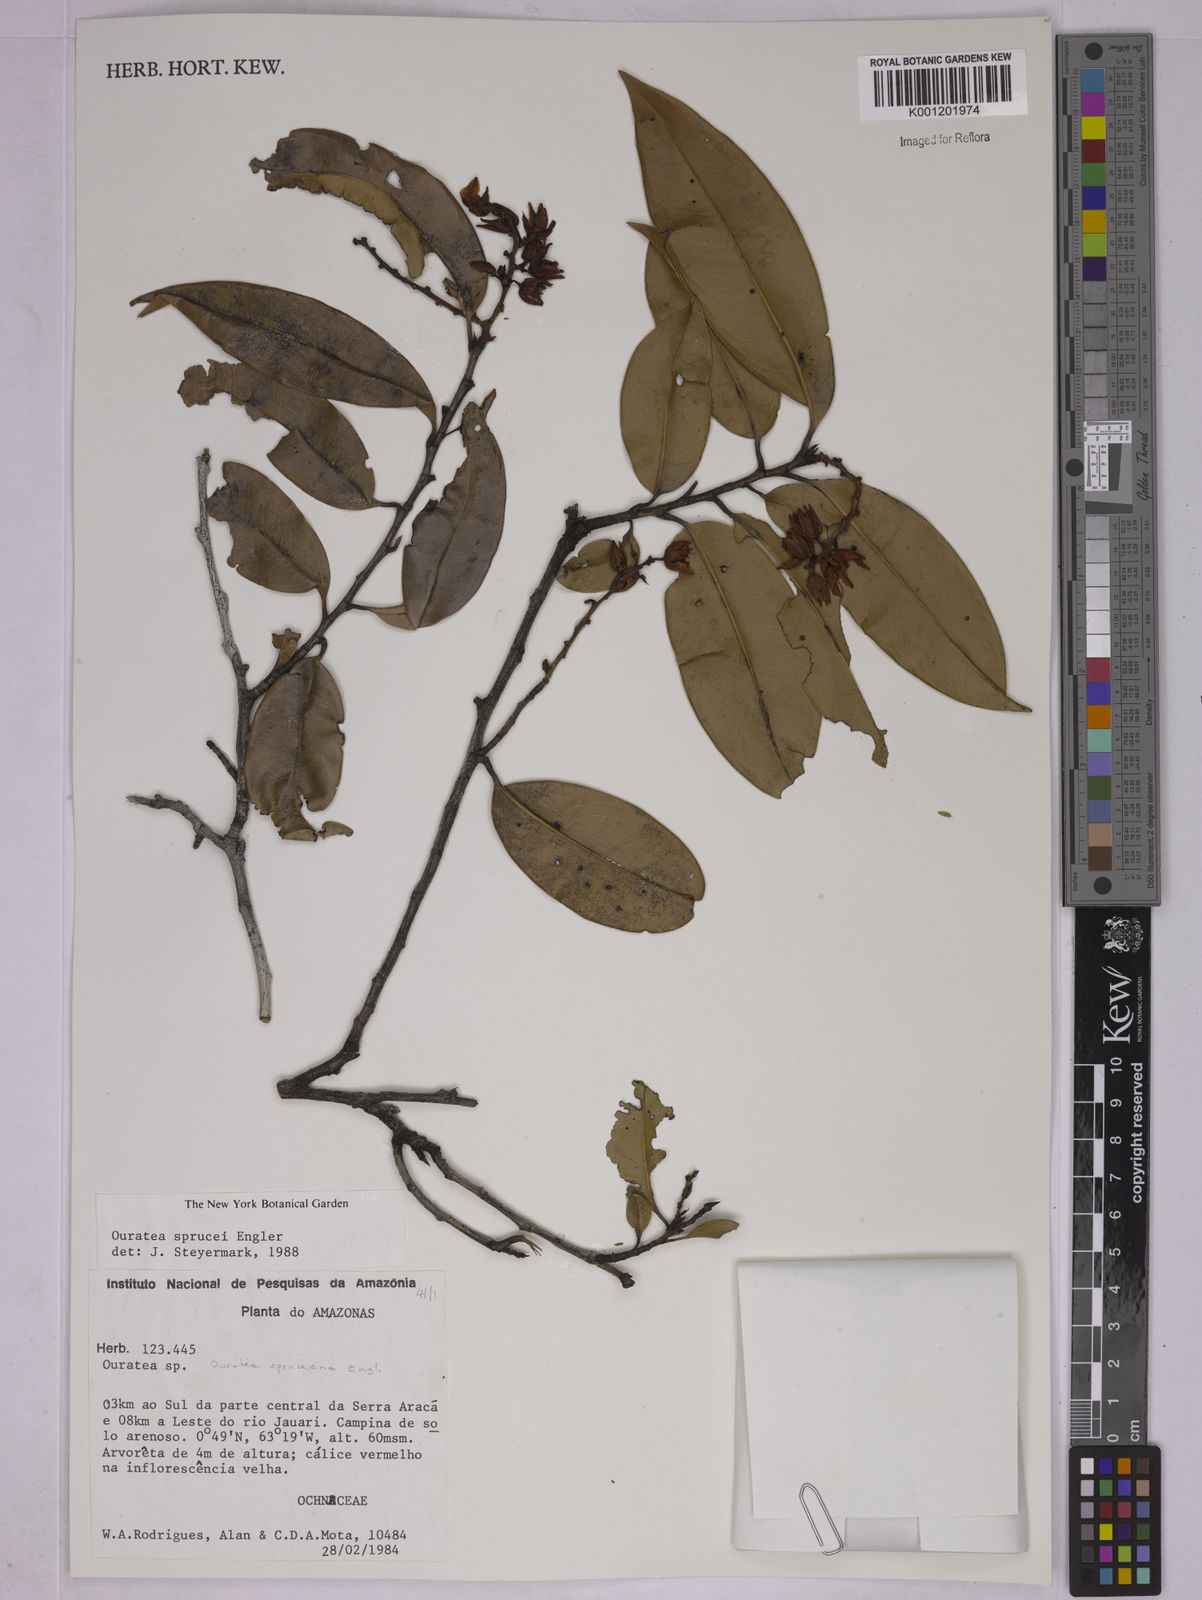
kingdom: Plantae
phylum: Tracheophyta
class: Magnoliopsida
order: Malpighiales
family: Ochnaceae
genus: Ouratea
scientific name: Ouratea spruceana
